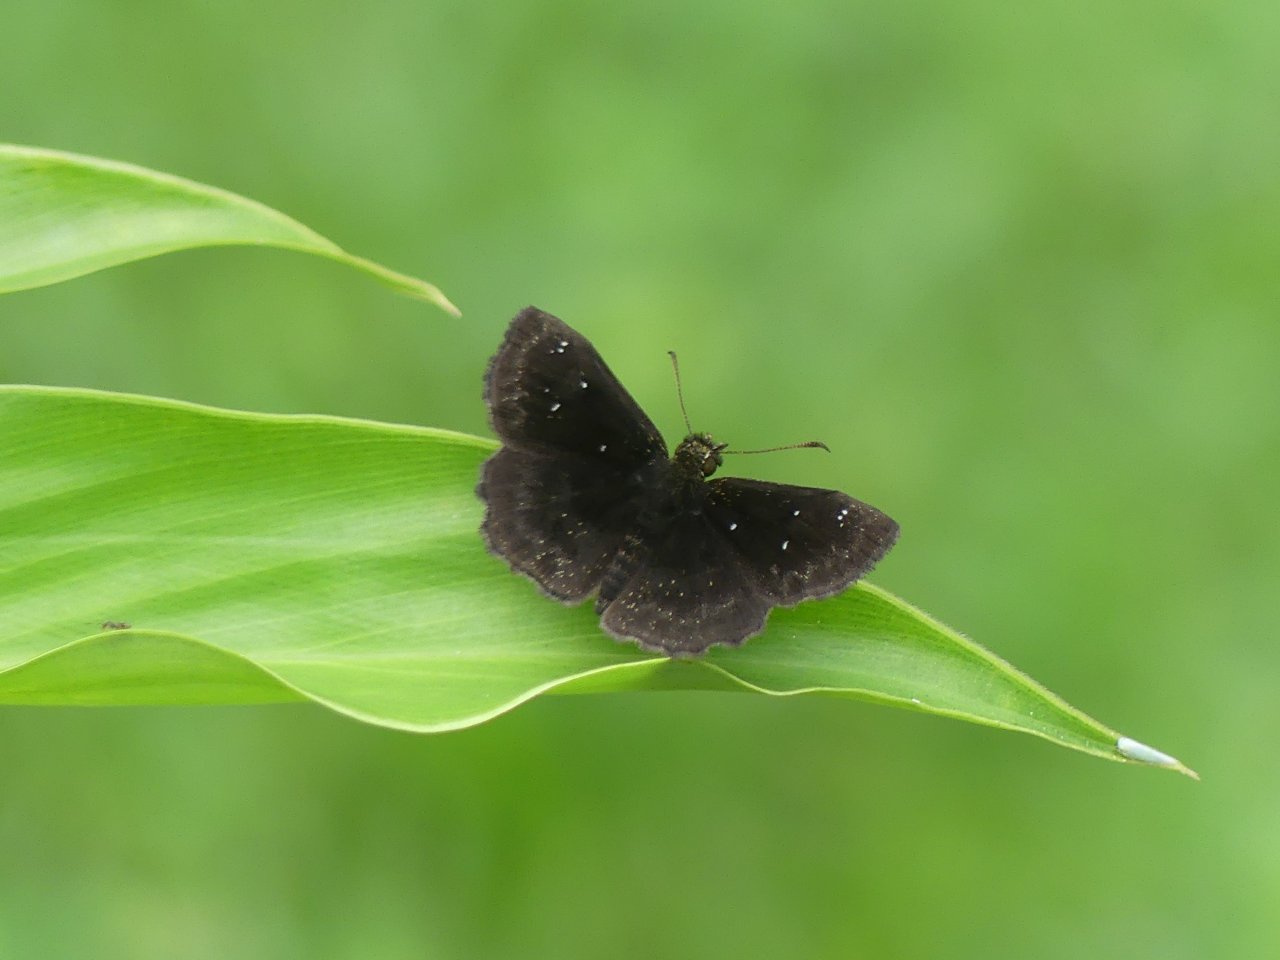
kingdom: Animalia
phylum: Arthropoda
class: Insecta
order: Lepidoptera
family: Hesperiidae
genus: Staphylus
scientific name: Staphylus ascalaphus
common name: Central American Sootywing
